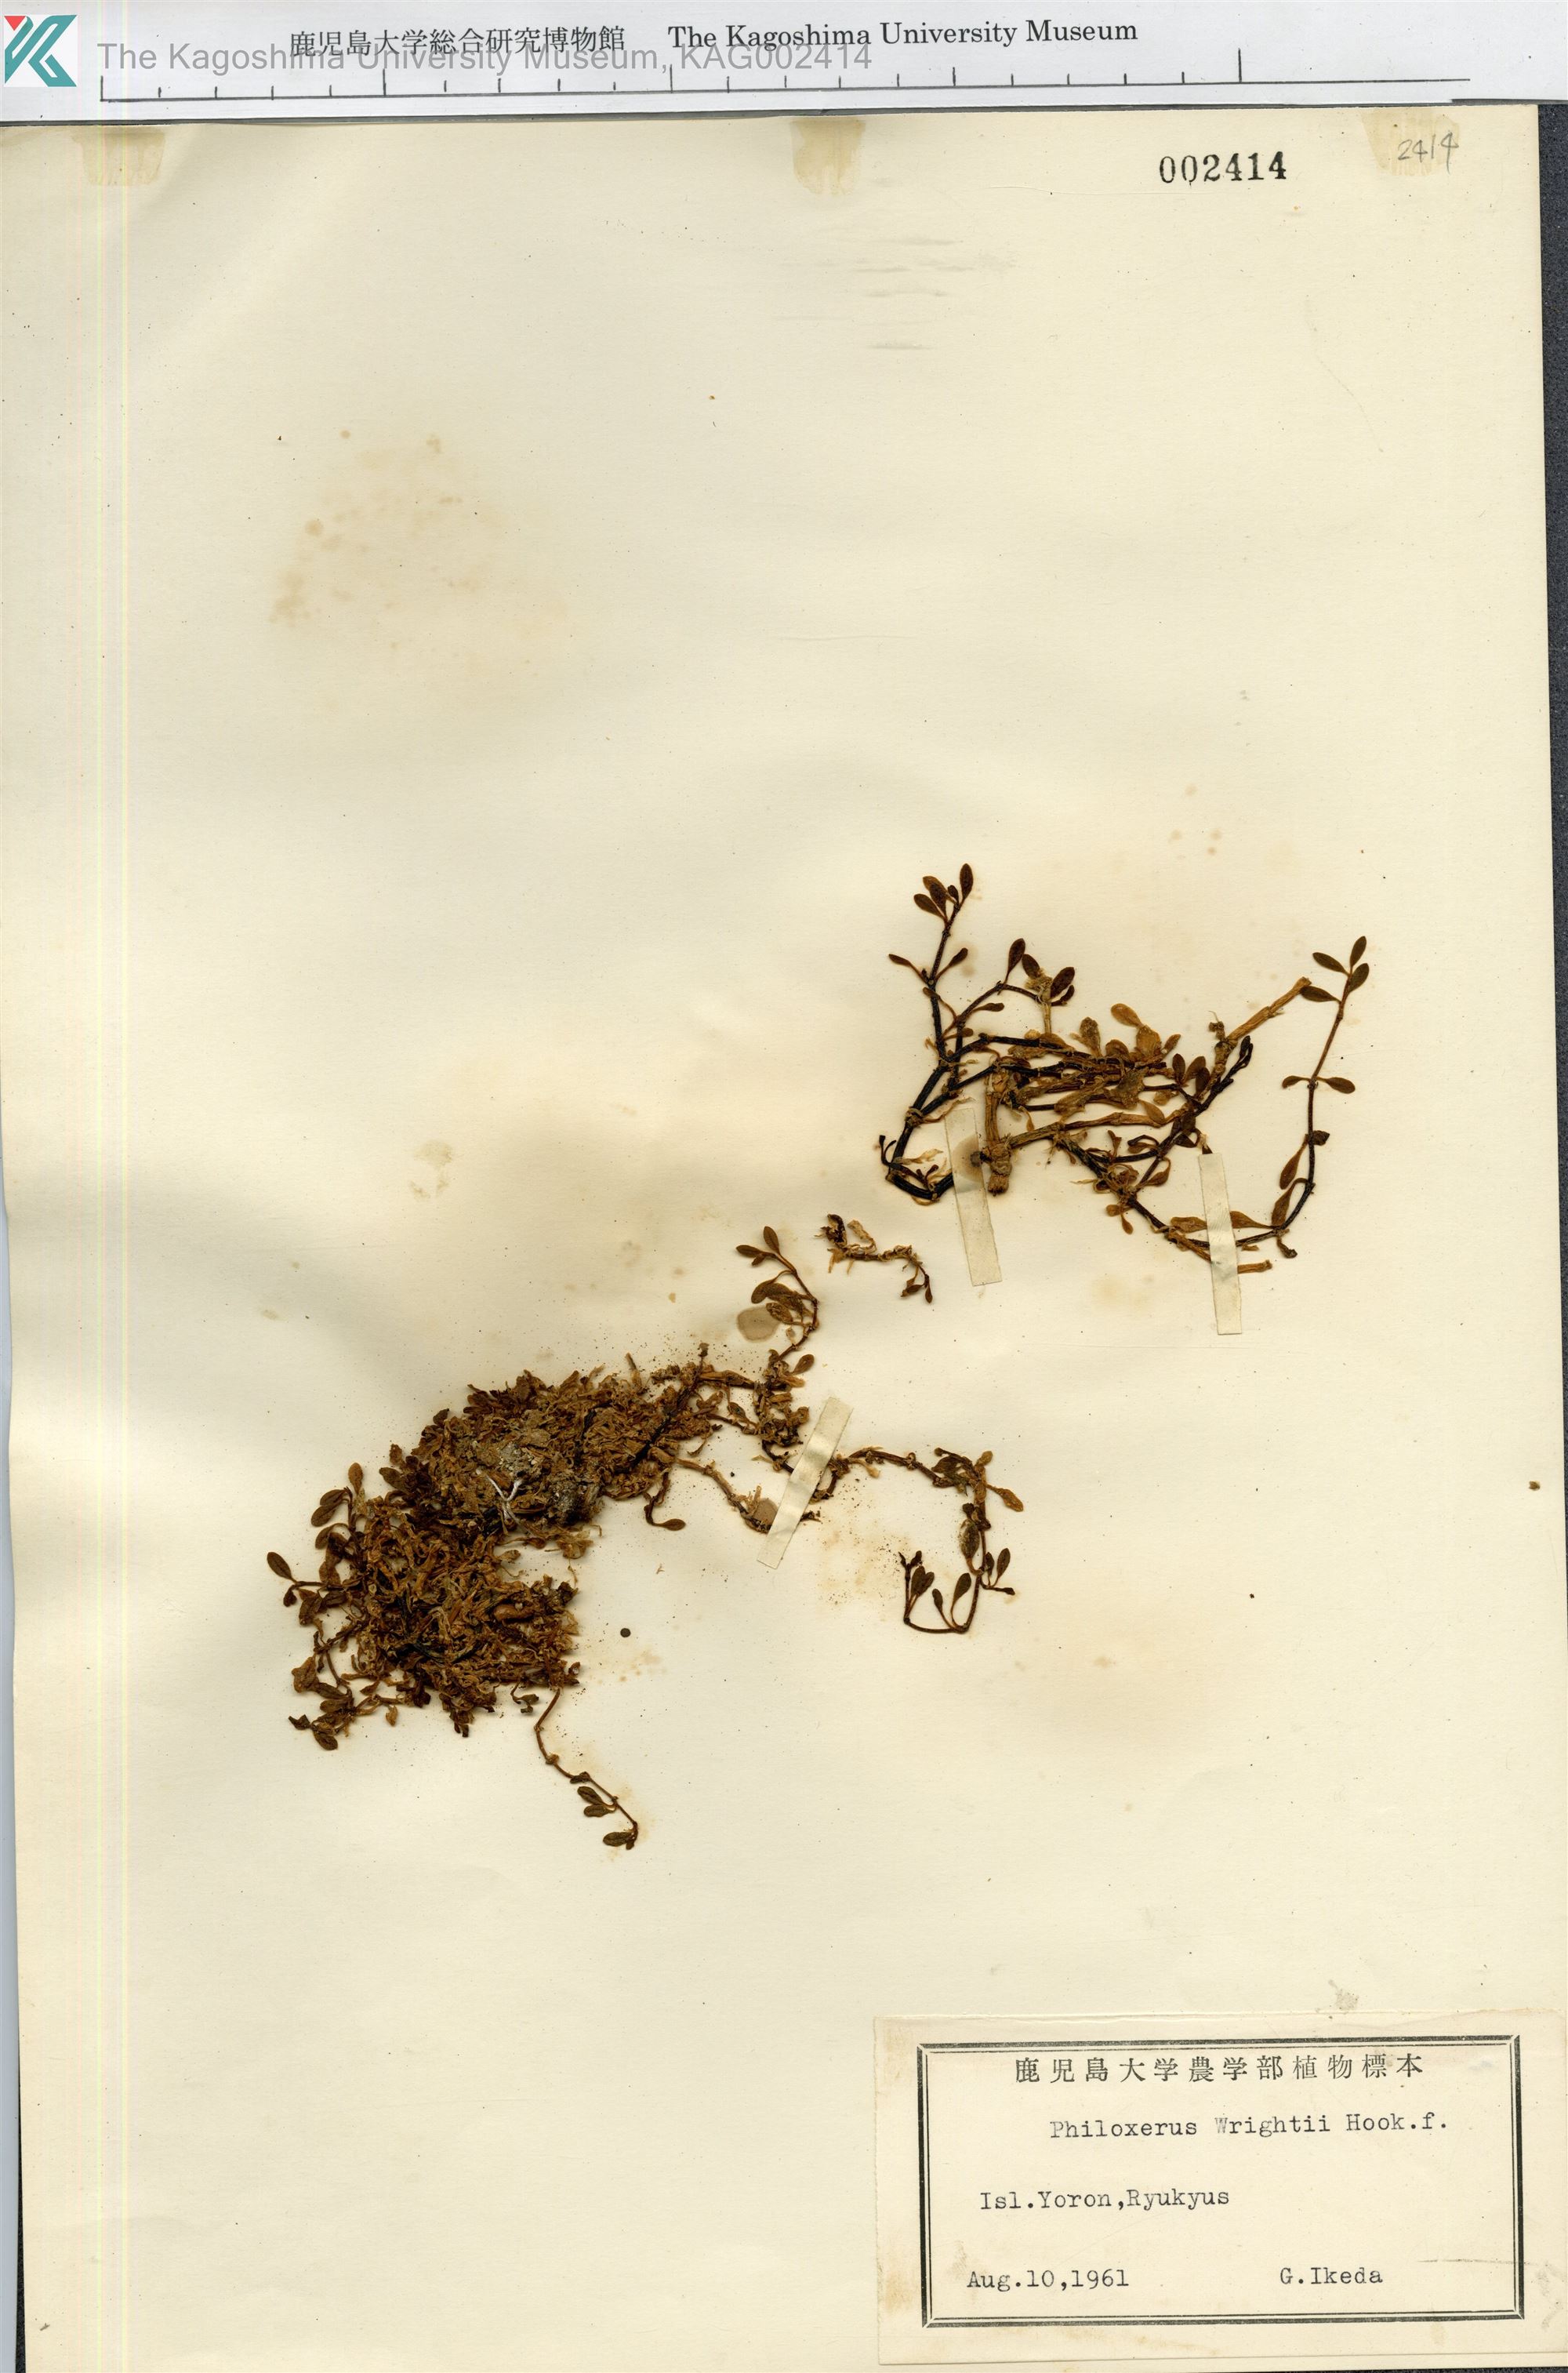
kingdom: Plantae
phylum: Tracheophyta
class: Magnoliopsida
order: Caryophyllales
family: Amaranthaceae
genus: Gomphrena
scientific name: Gomphrena wrightii
